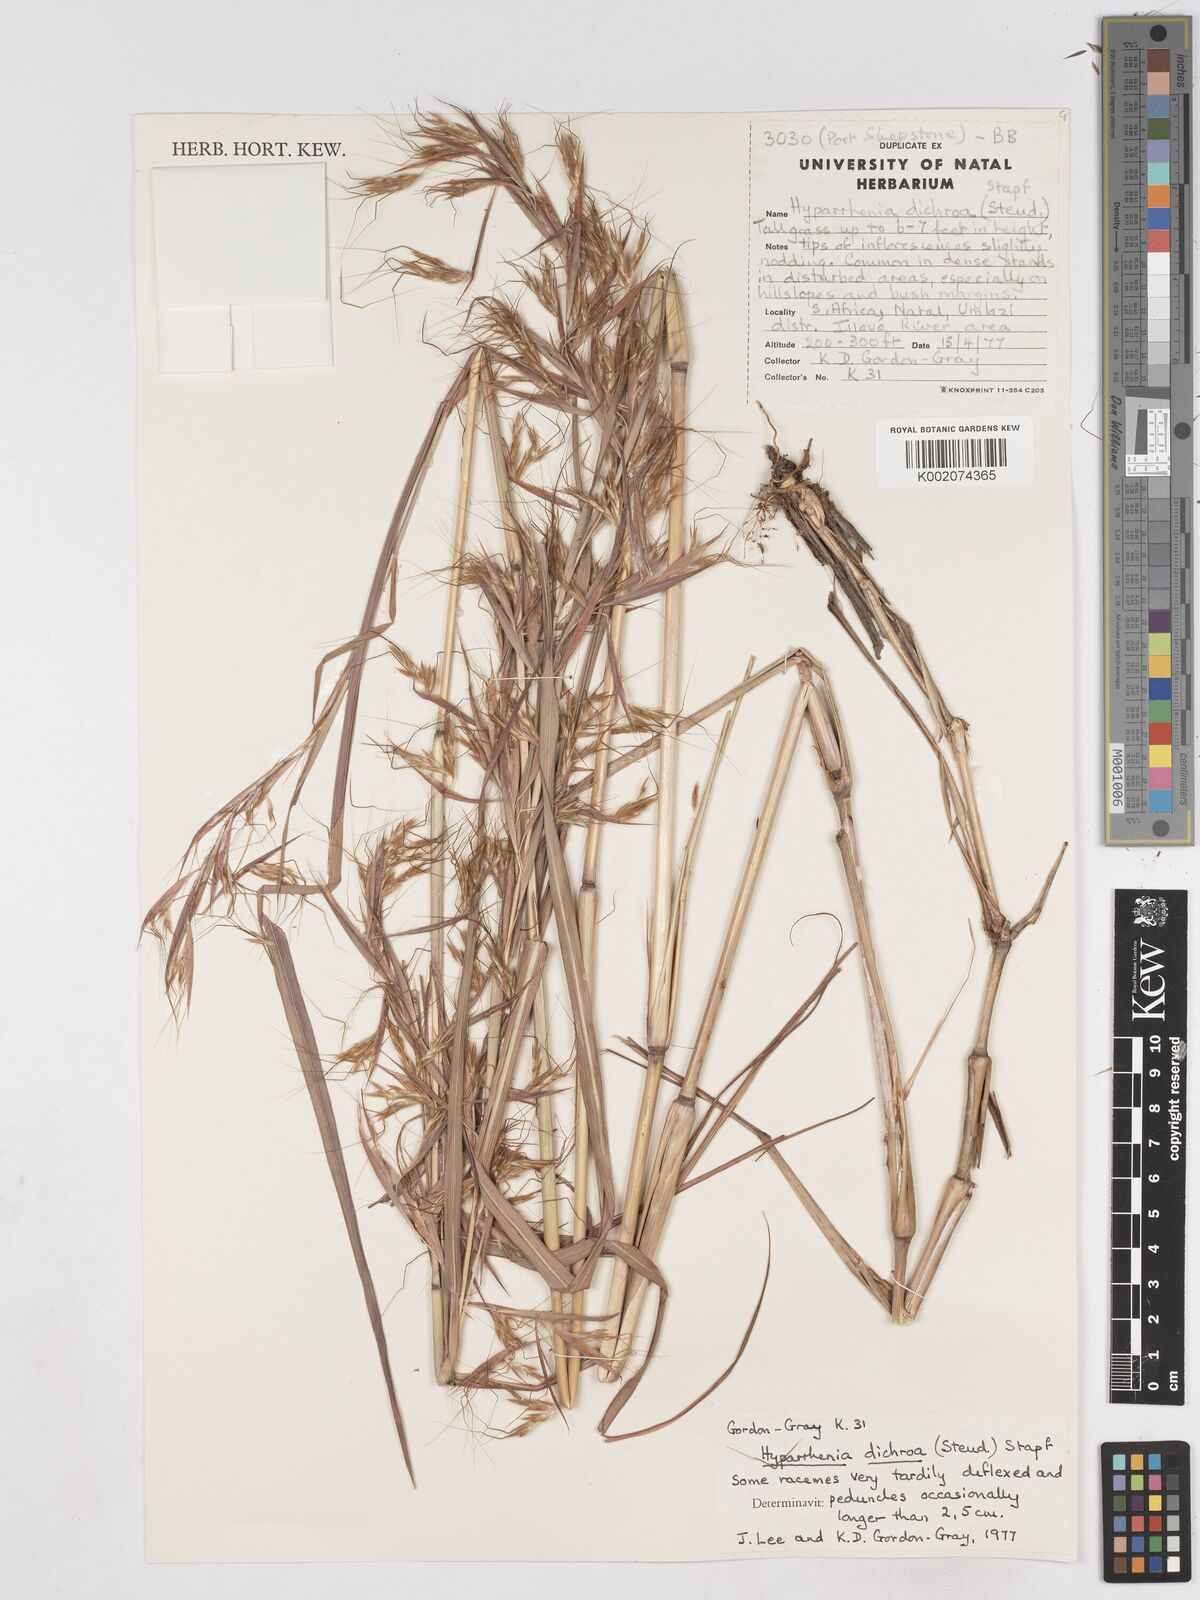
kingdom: Plantae
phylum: Tracheophyta
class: Liliopsida
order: Poales
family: Poaceae
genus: Hyparrhenia
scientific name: Hyparrhenia dichroa
